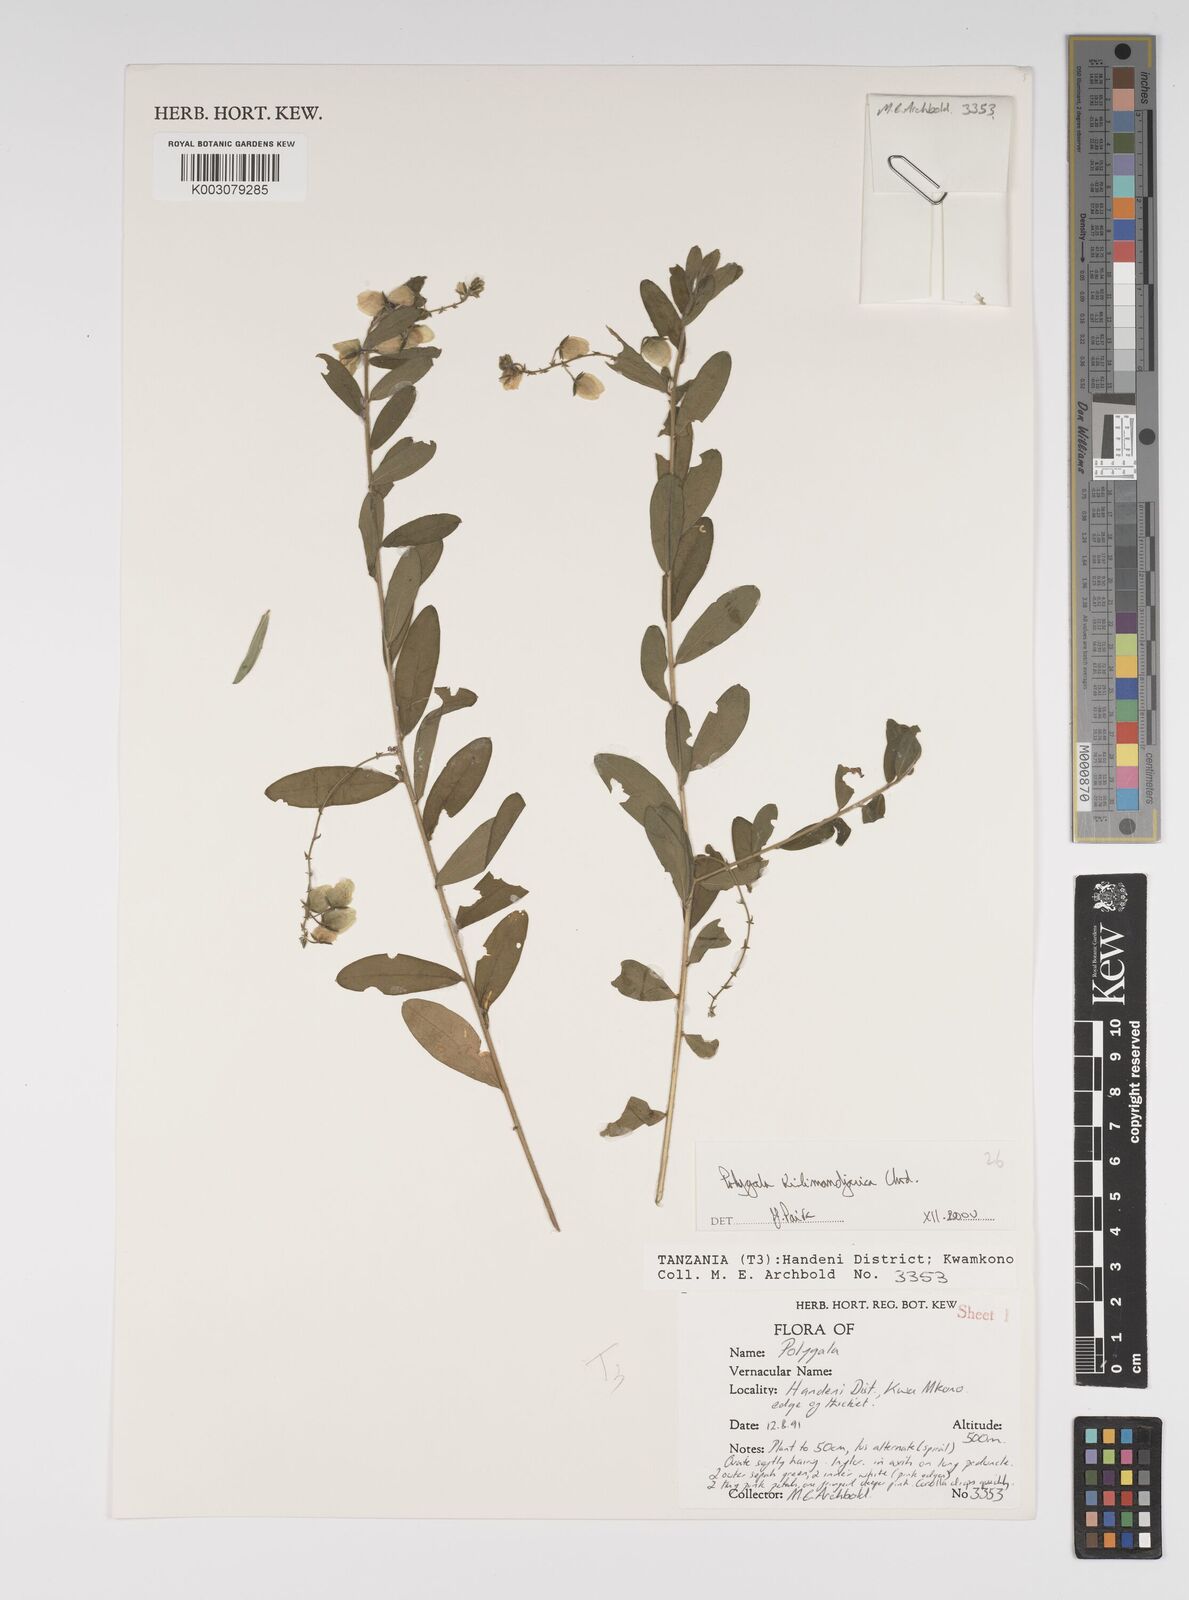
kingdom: Plantae
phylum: Tracheophyta
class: Magnoliopsida
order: Fabales
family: Polygalaceae
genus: Polygala
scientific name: Polygala kilimandjarica
